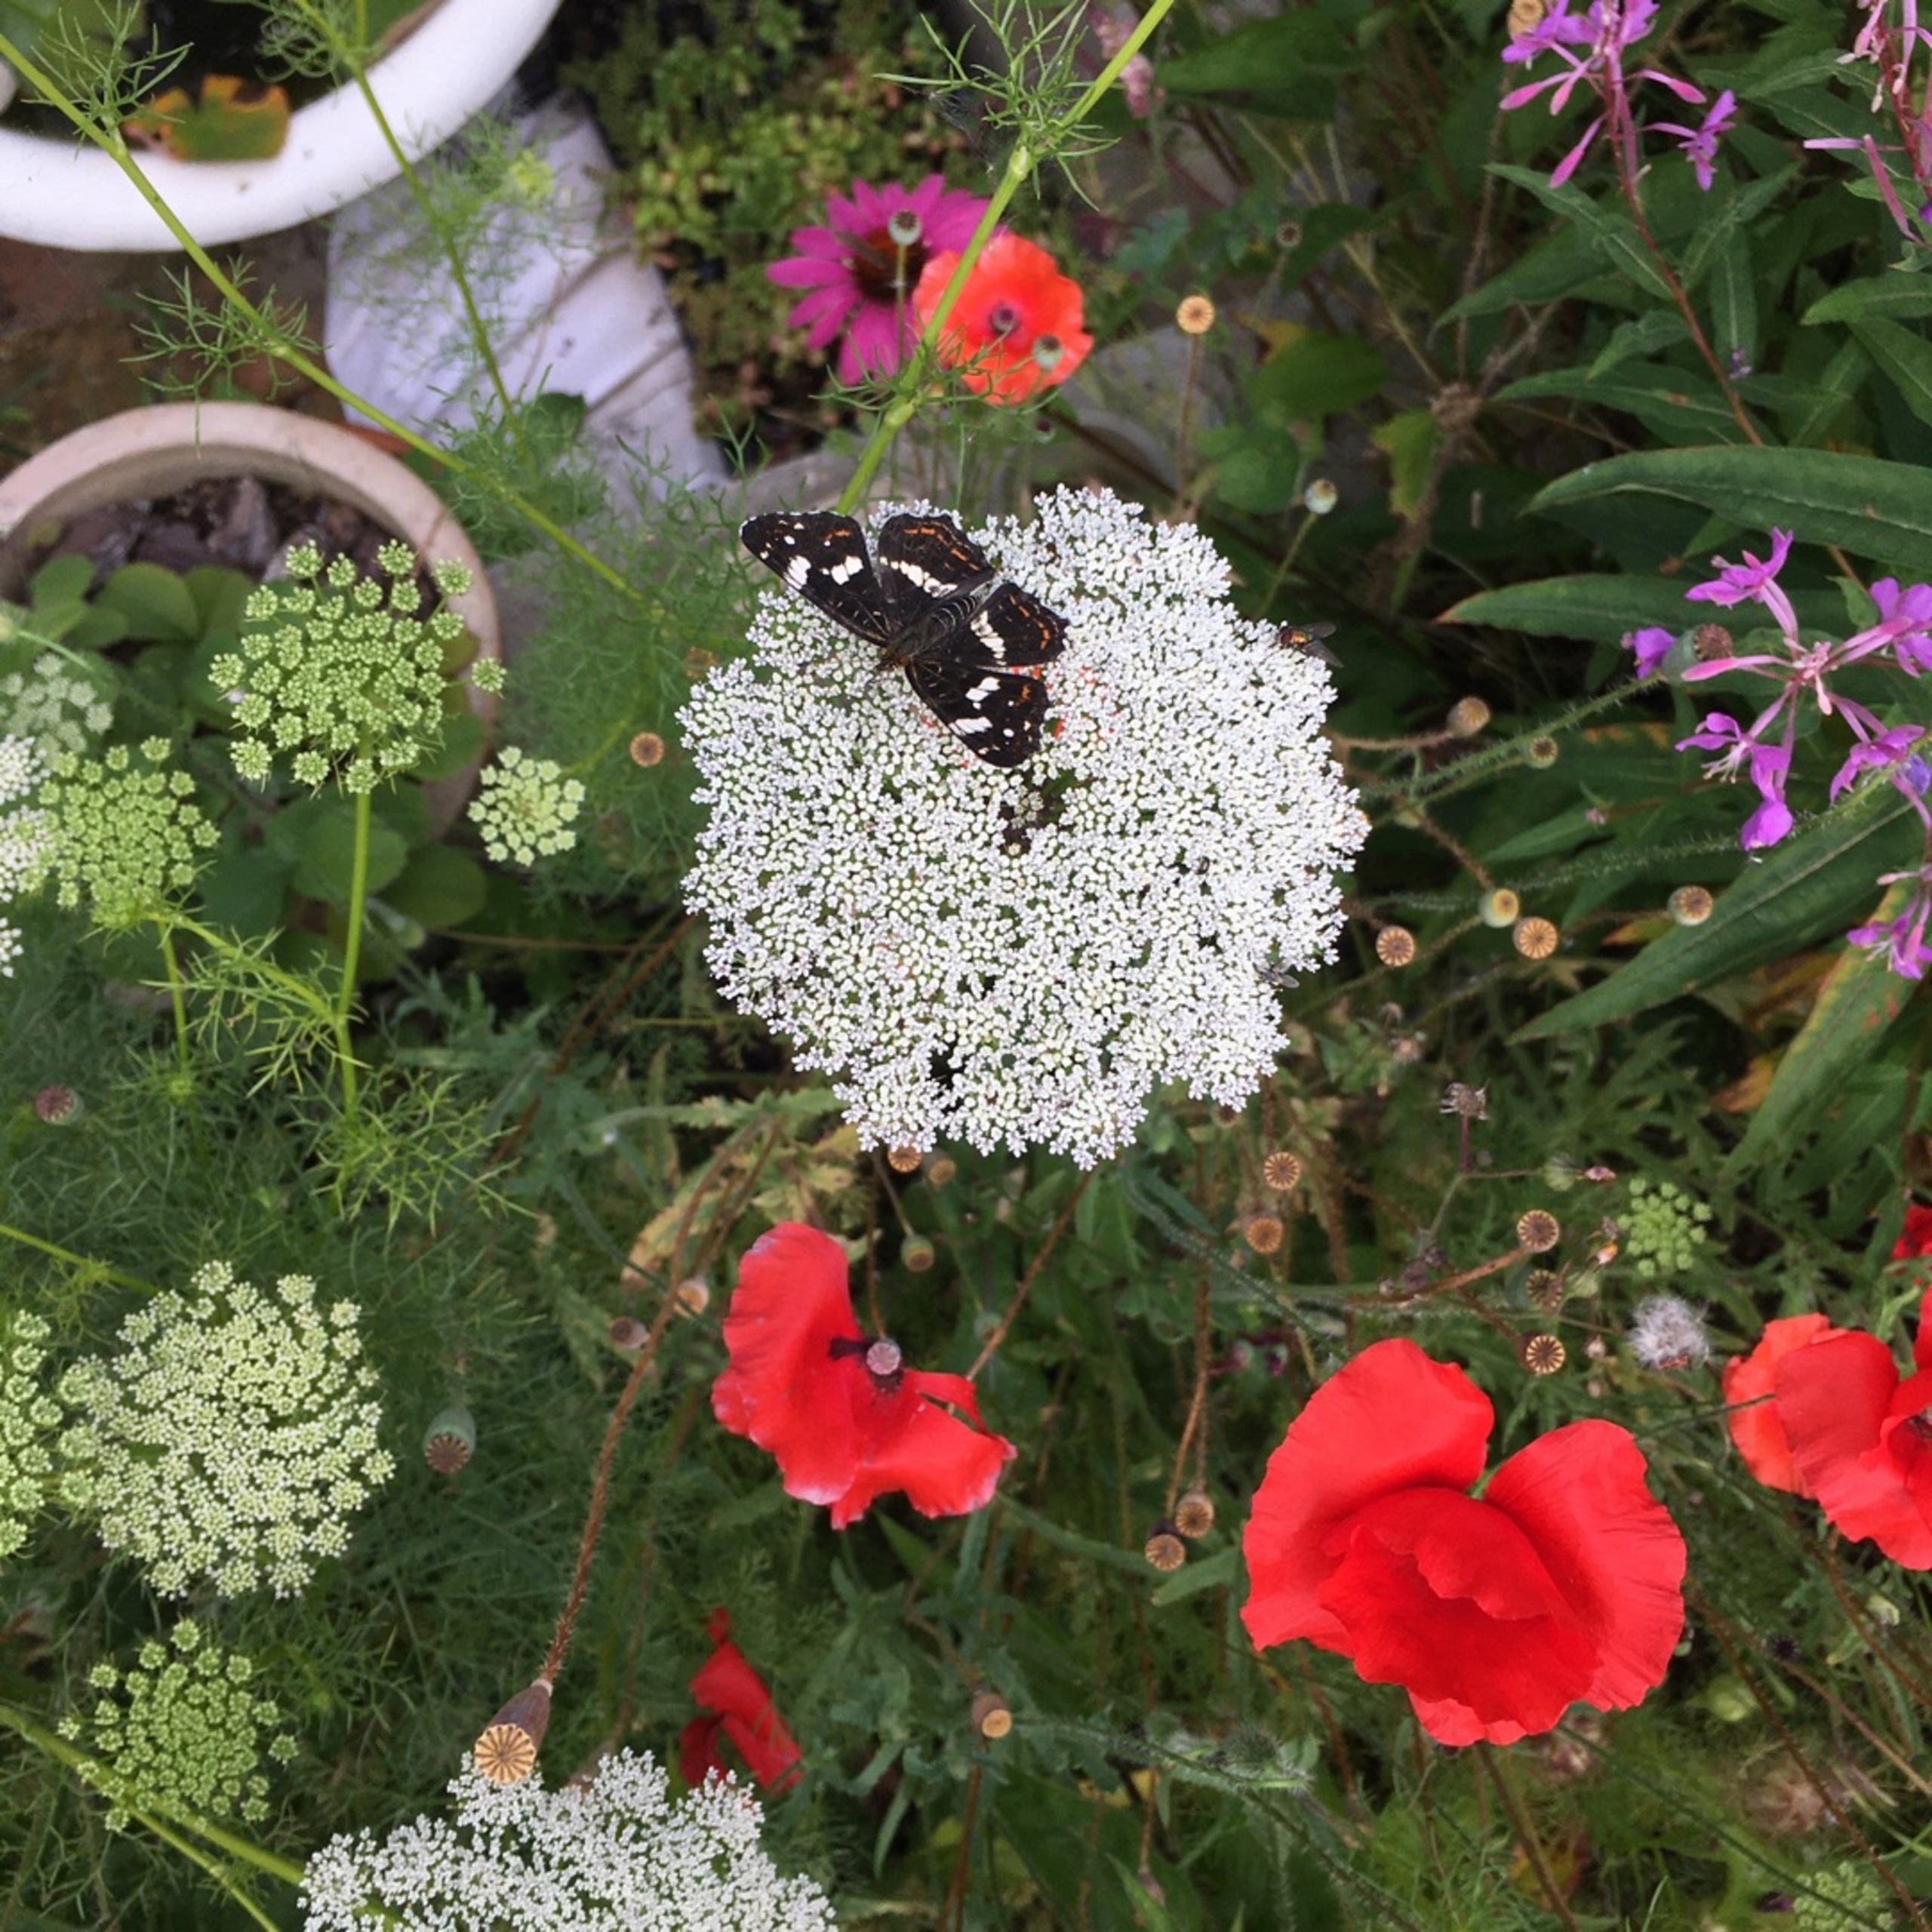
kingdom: Animalia
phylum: Arthropoda
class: Insecta
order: Lepidoptera
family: Nymphalidae
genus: Araschnia
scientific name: Araschnia levana
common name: Nældesommerfugl
